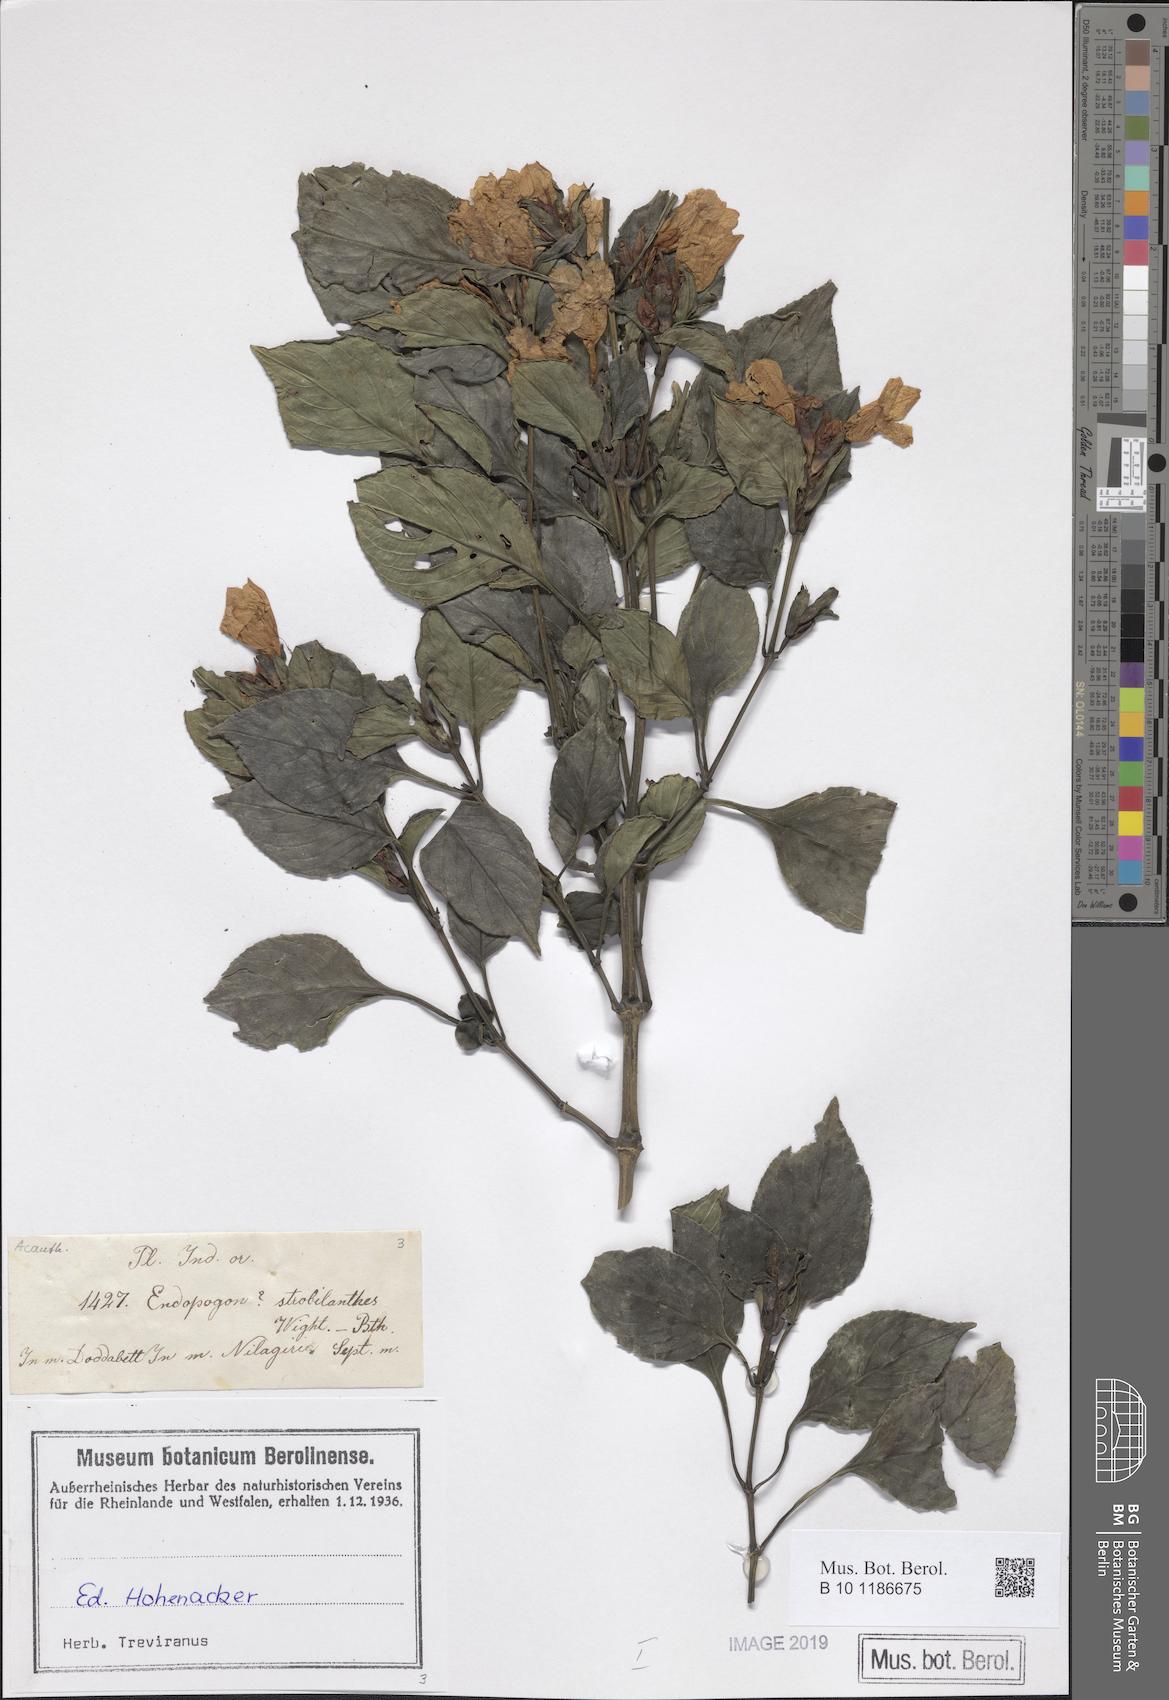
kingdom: Plantae
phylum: Tracheophyta
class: Magnoliopsida
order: Lamiales
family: Acanthaceae
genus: Strobilanthes
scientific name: Strobilanthes zenkeriana
